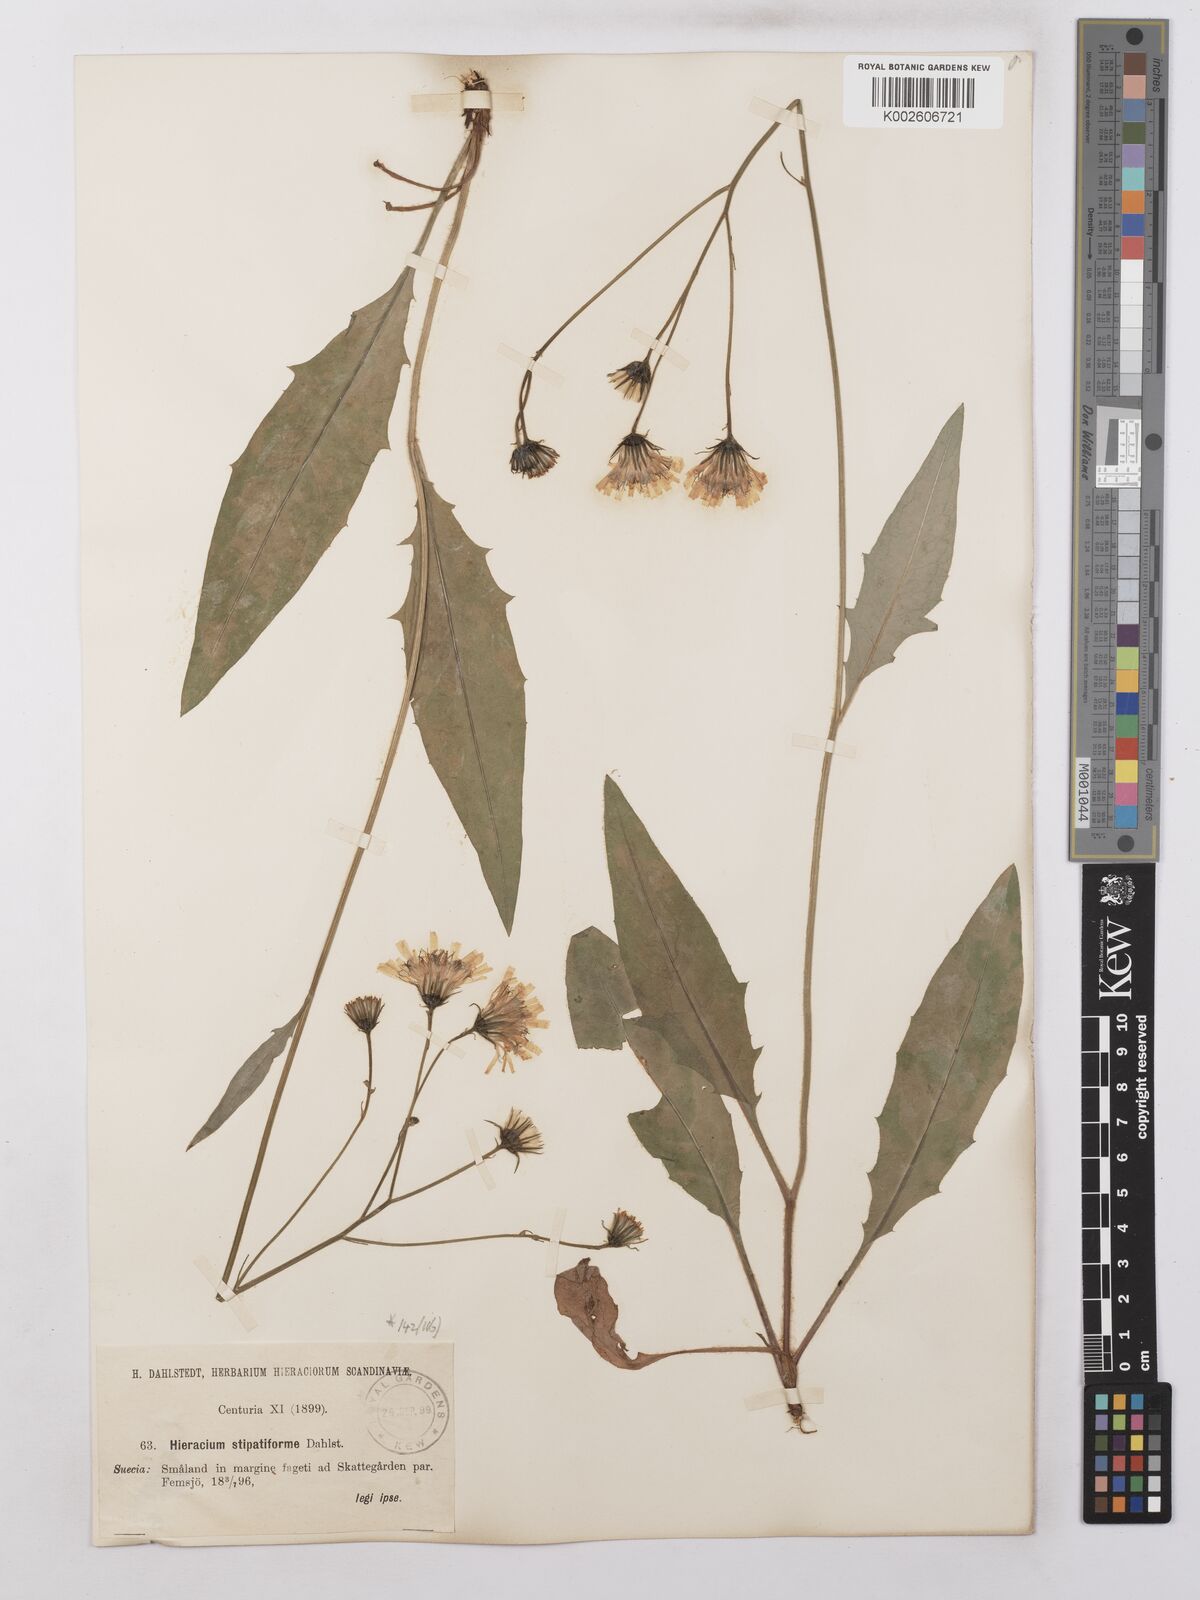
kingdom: Plantae
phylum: Tracheophyta
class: Magnoliopsida
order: Asterales
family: Asteraceae
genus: Hieracium
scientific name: Hieracium lachenalii
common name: Common hawkweed
